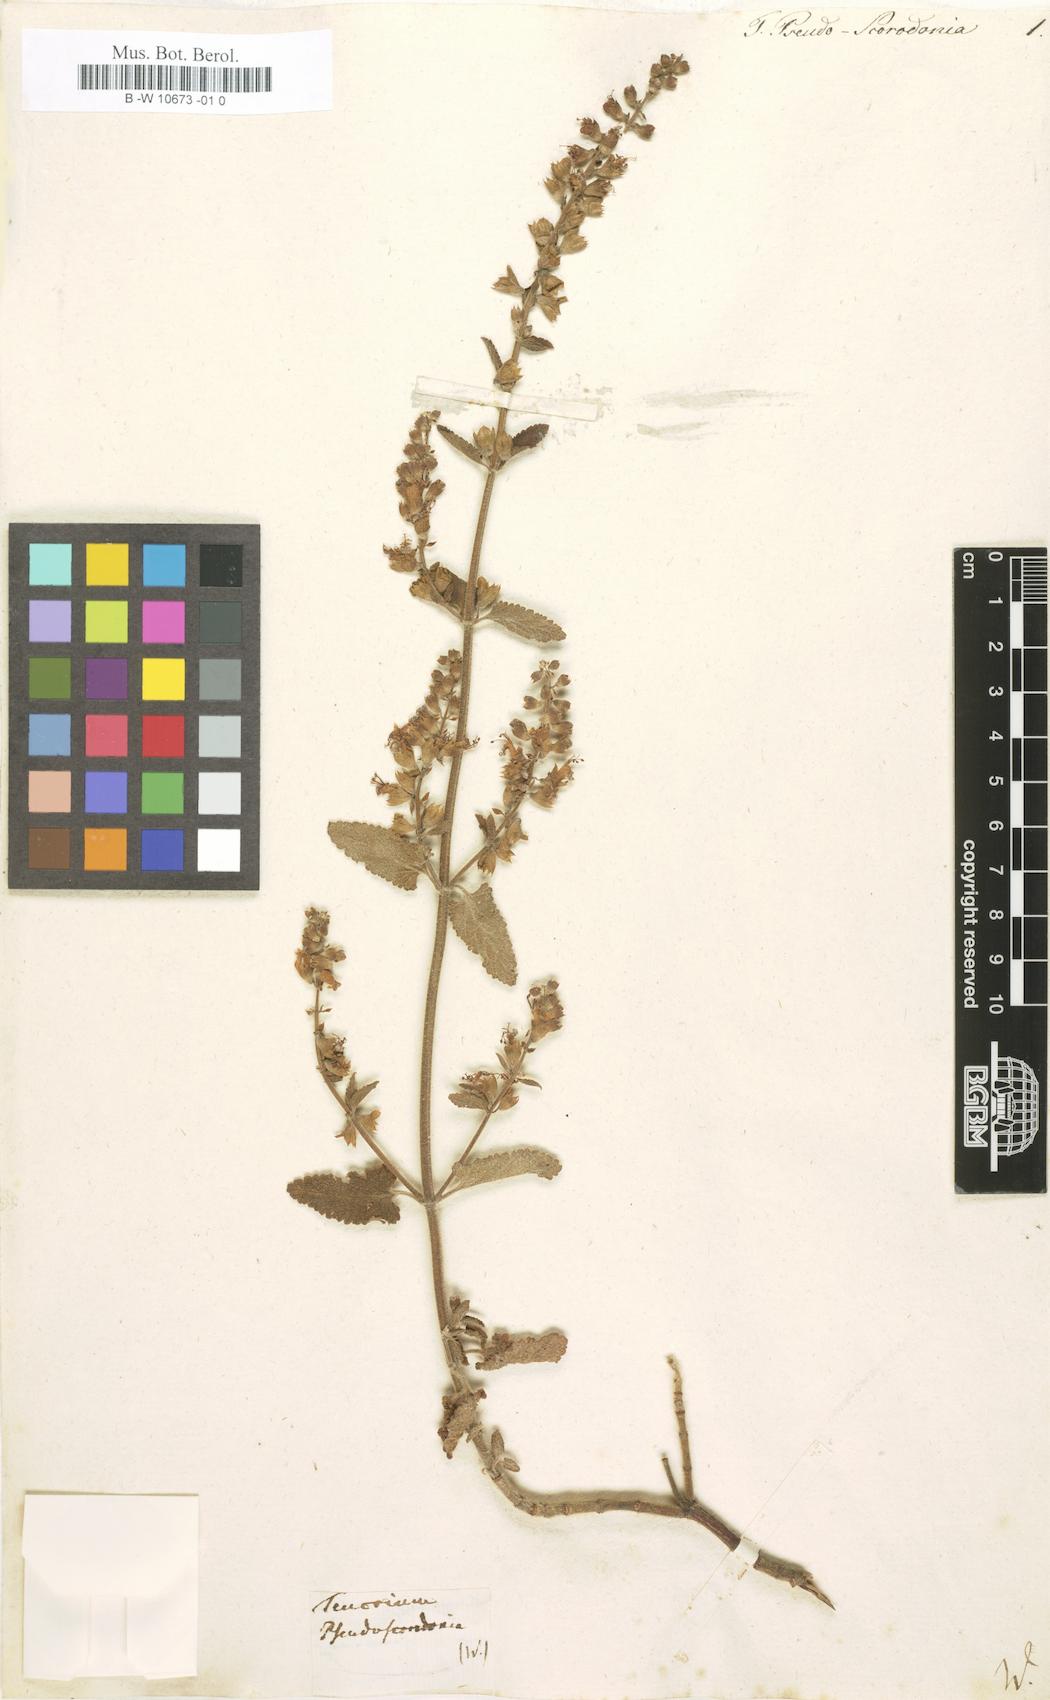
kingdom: Plantae
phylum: Tracheophyta
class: Magnoliopsida
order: Lamiales
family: Lamiaceae
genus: Teucrium
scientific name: Teucrium pseudoscorodonia
